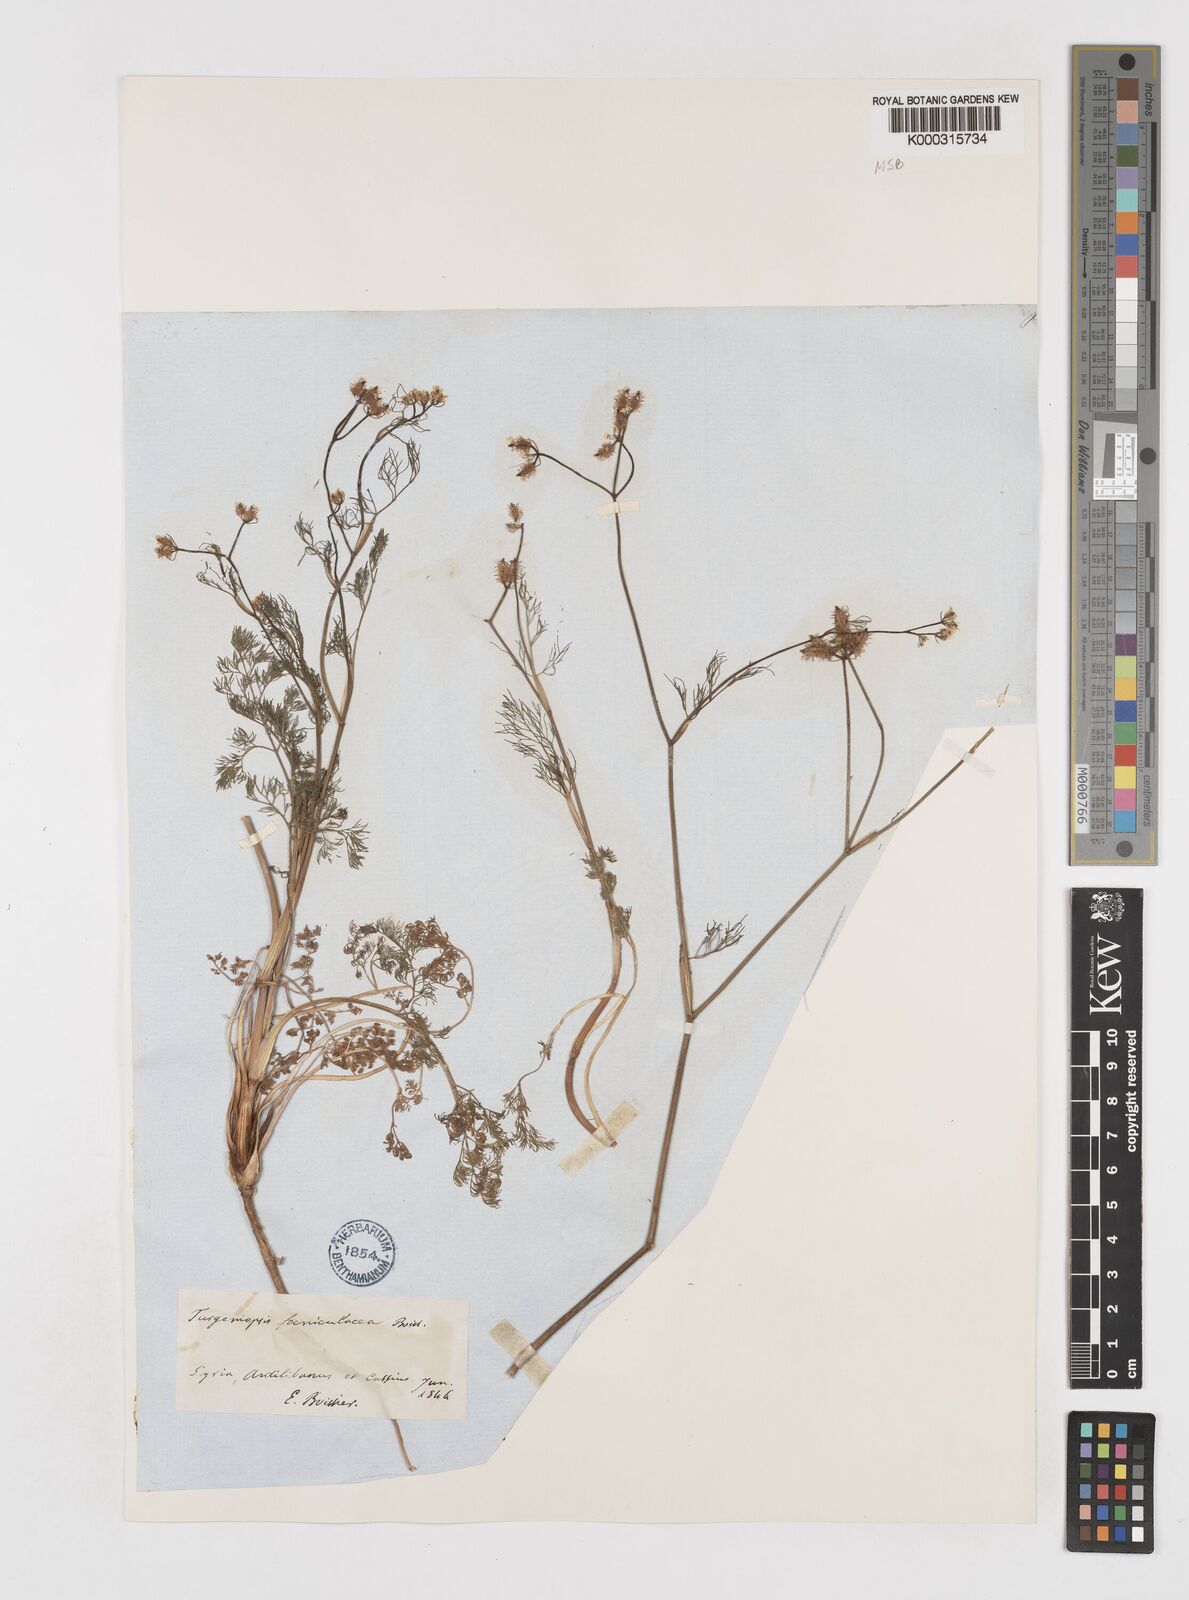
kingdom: Plantae
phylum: Tracheophyta
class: Magnoliopsida
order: Apiales
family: Apiaceae
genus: Turgeniopsis
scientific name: Turgeniopsis foeniculacea
